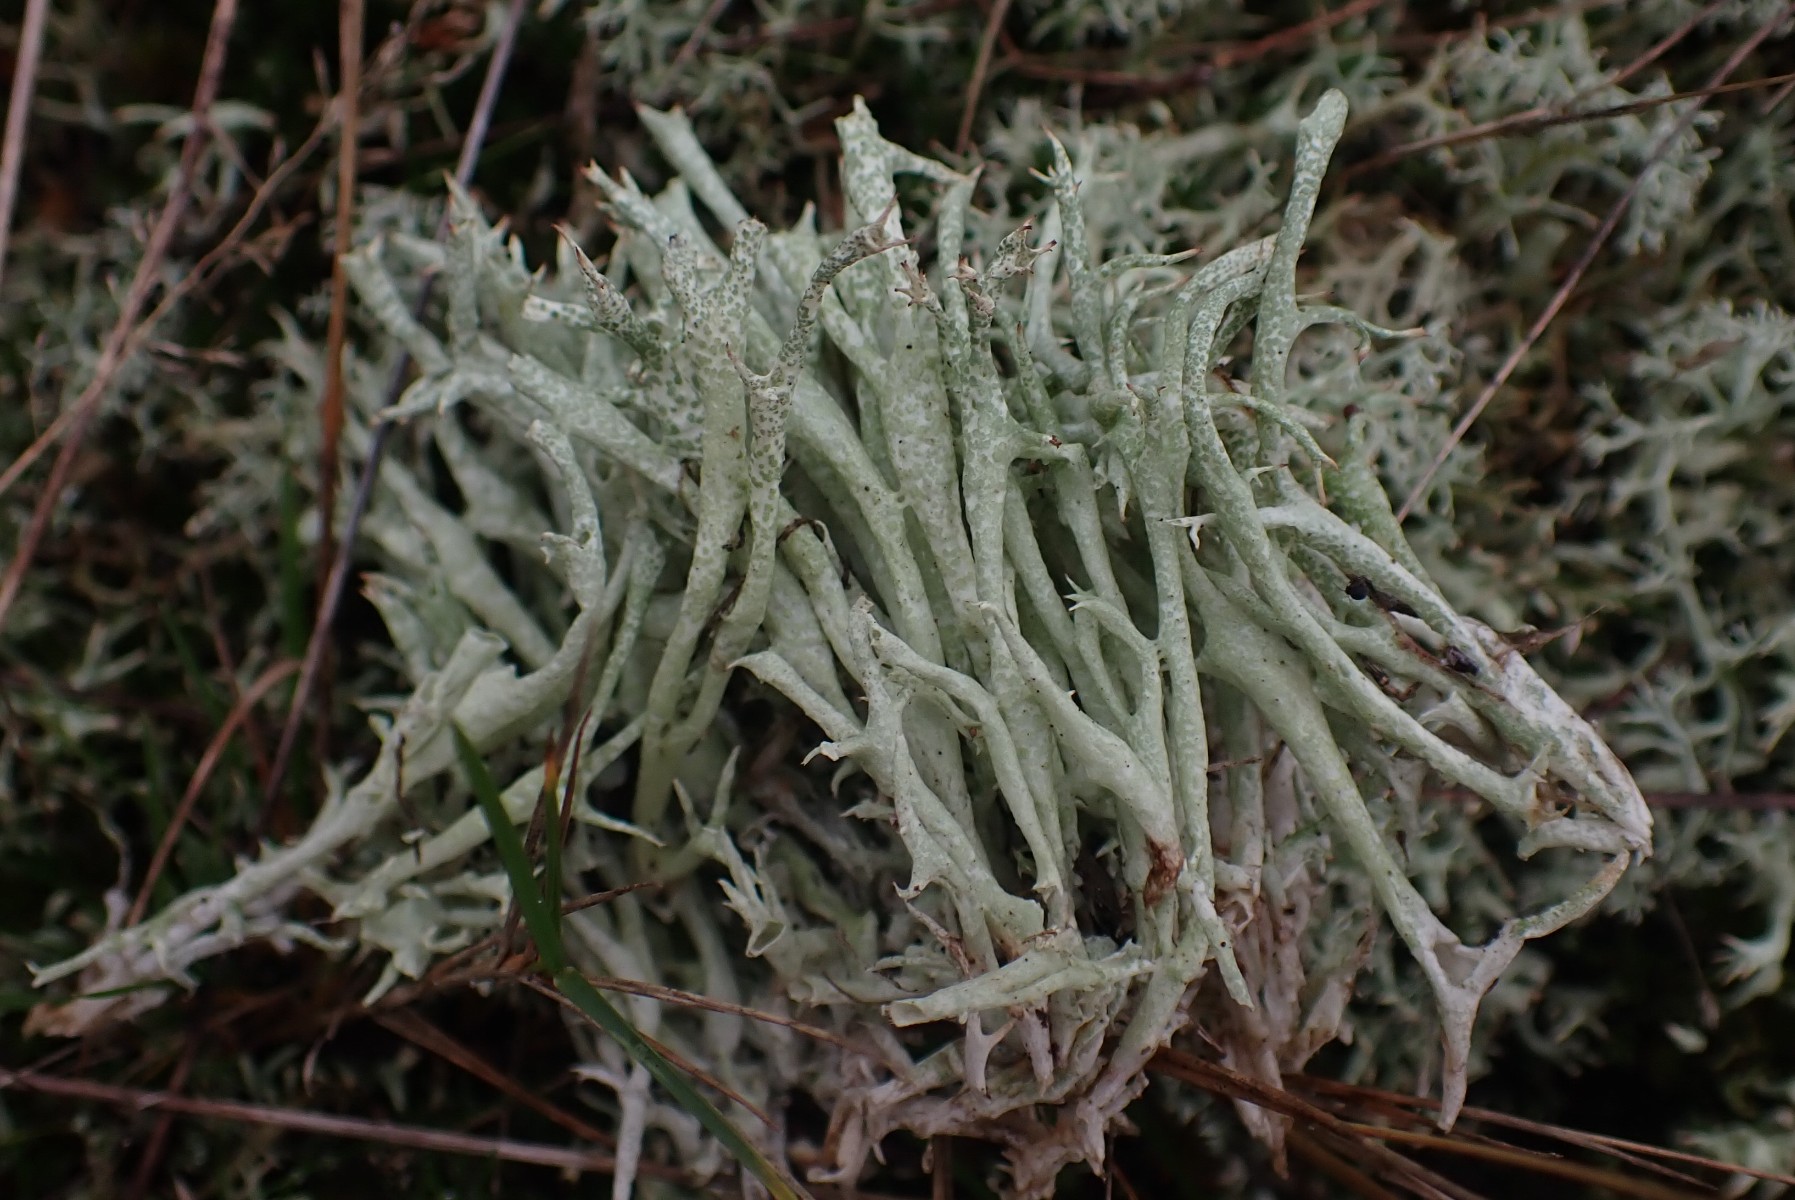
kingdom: Fungi
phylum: Ascomycota
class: Lecanoromycetes
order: Lecanorales
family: Cladoniaceae
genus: Cladonia
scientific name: Cladonia uncialis
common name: pigget bægerlav
